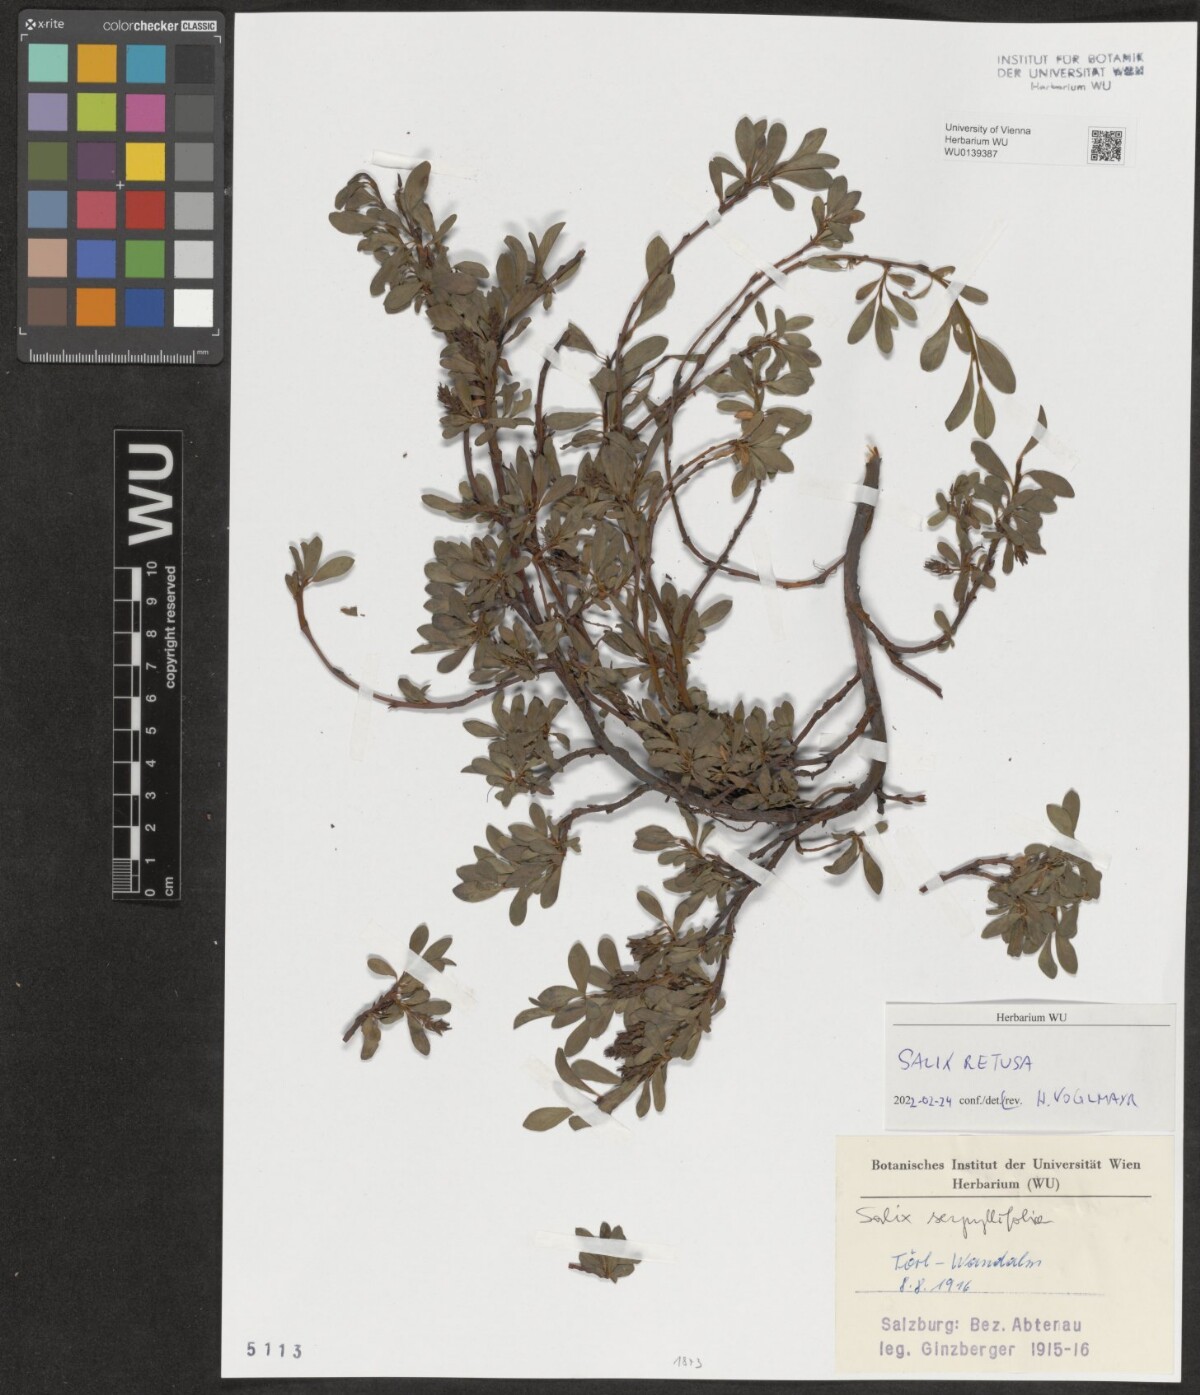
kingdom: Plantae
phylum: Tracheophyta
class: Magnoliopsida
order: Malpighiales
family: Salicaceae
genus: Salix
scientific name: Salix retusa
